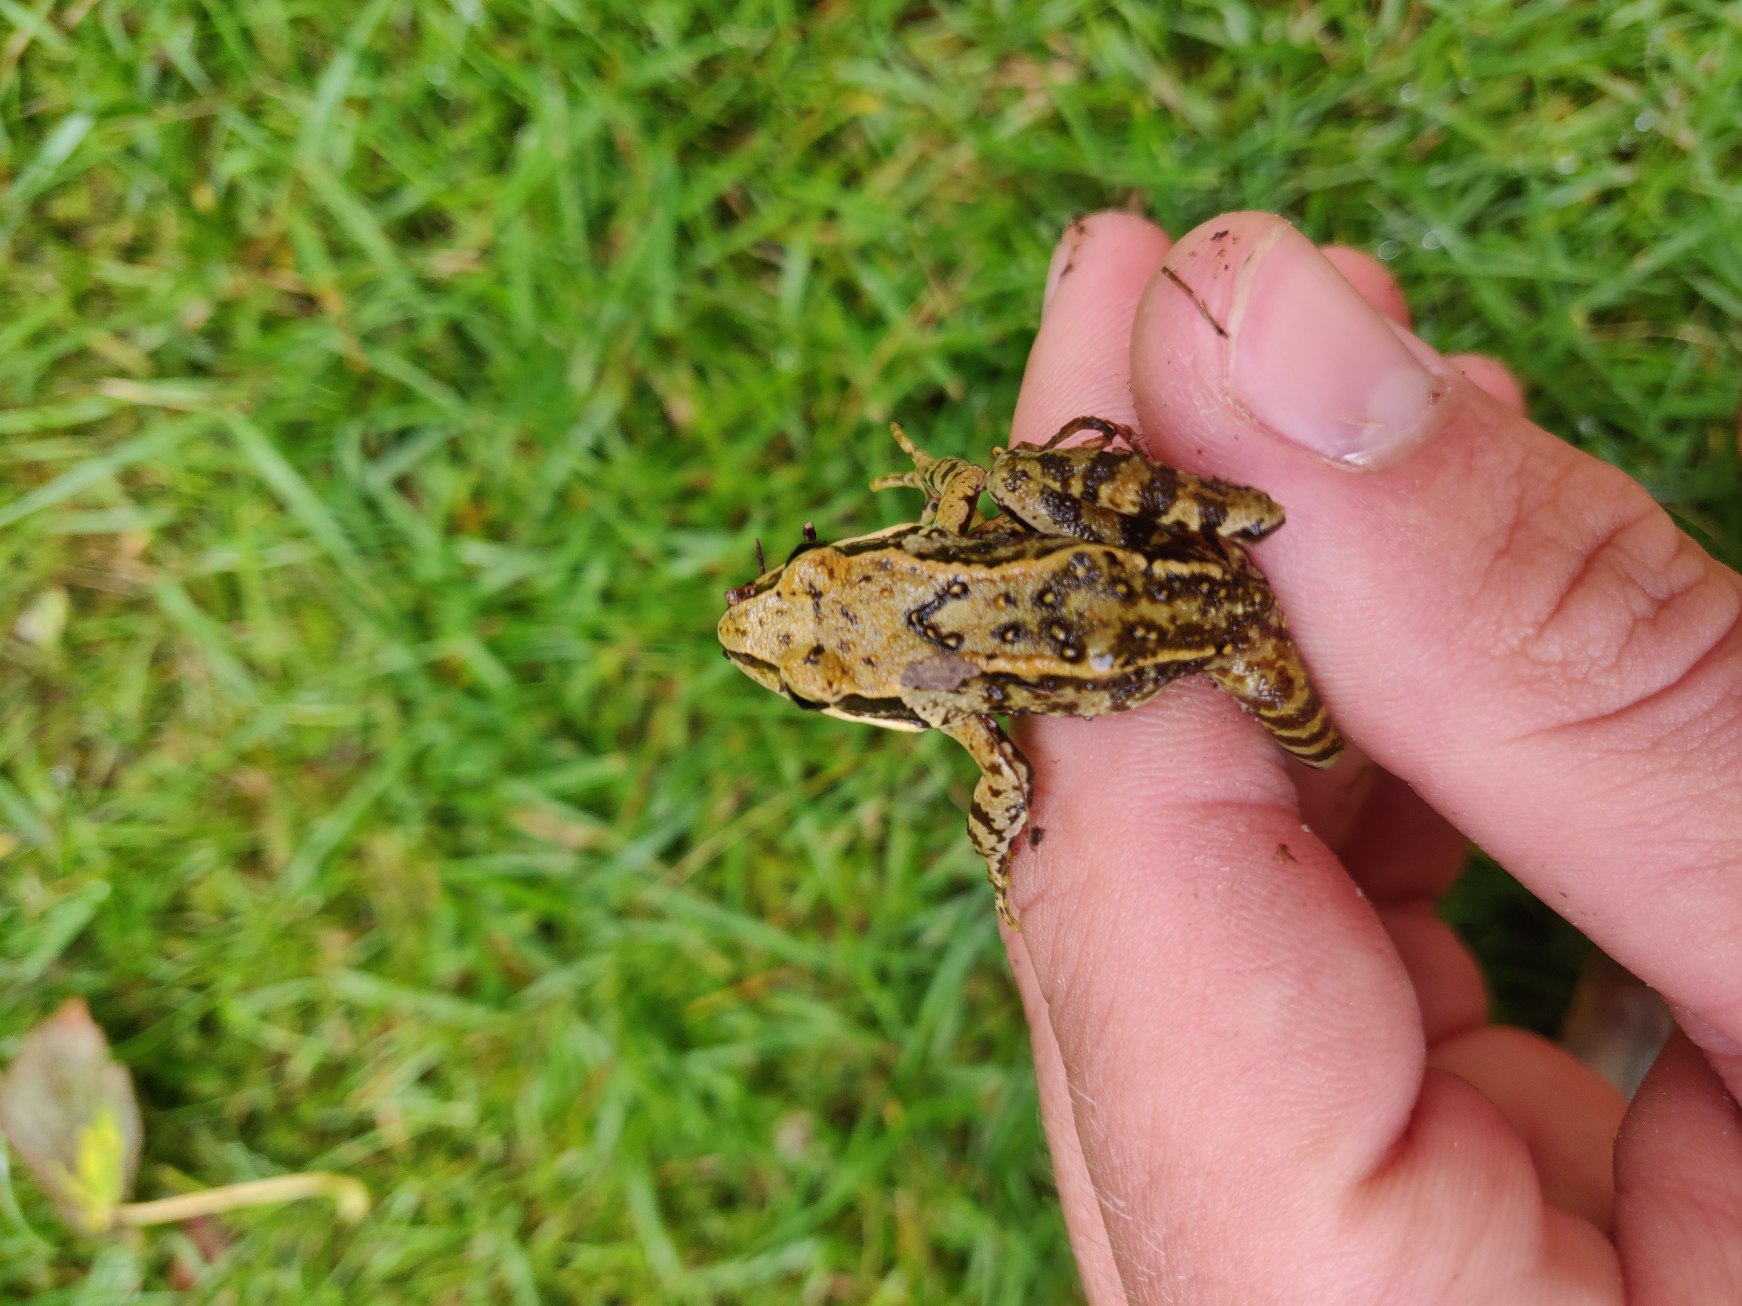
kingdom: Animalia
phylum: Chordata
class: Amphibia
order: Anura
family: Ranidae
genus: Rana
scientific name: Rana temporaria
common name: Butsnudet frø
